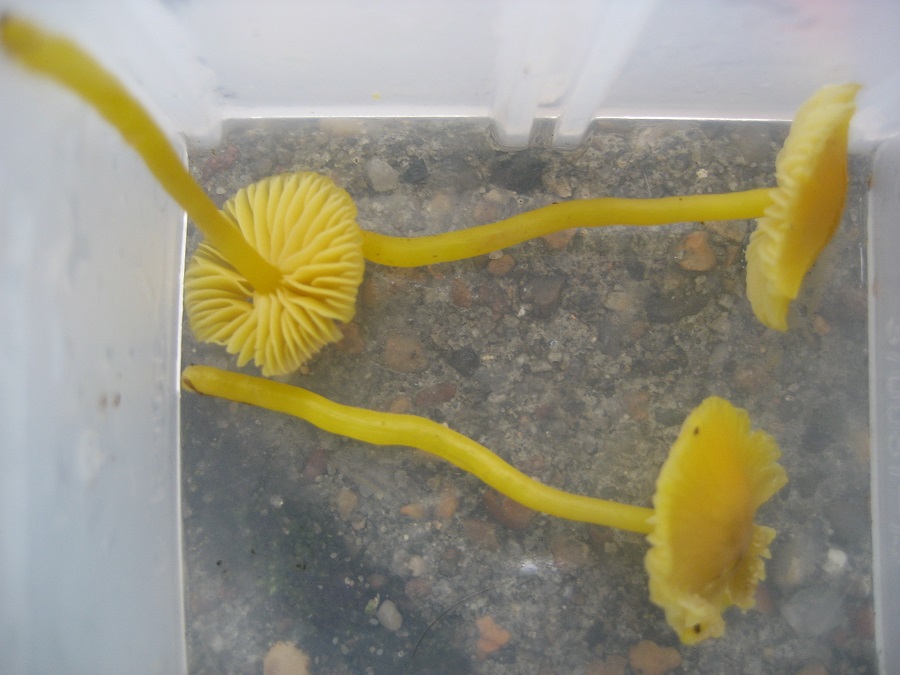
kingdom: Fungi
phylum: Basidiomycota
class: Agaricomycetes
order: Agaricales
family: Hygrophoraceae
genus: Hygrocybe
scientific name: Hygrocybe glutinipes
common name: slimstokket vokshat
